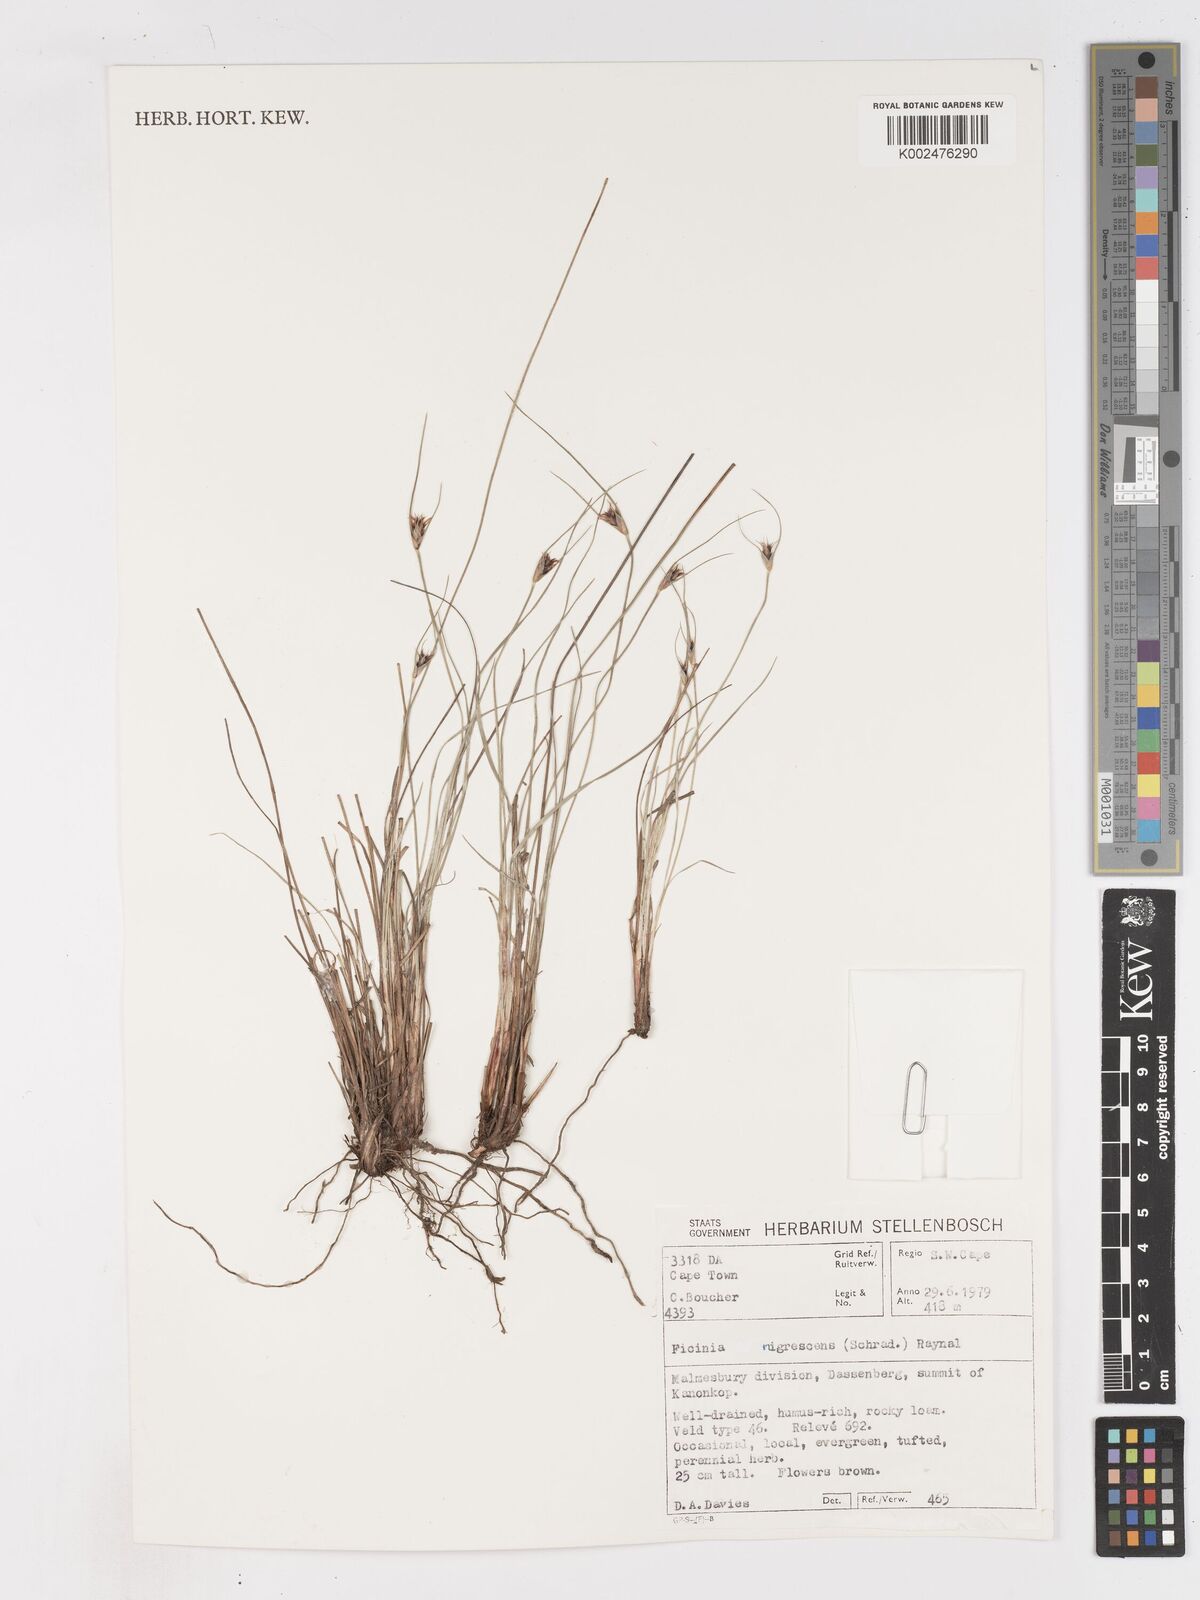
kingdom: Plantae
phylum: Tracheophyta
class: Liliopsida
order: Poales
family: Cyperaceae
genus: Ficinia
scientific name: Ficinia nigrescens
